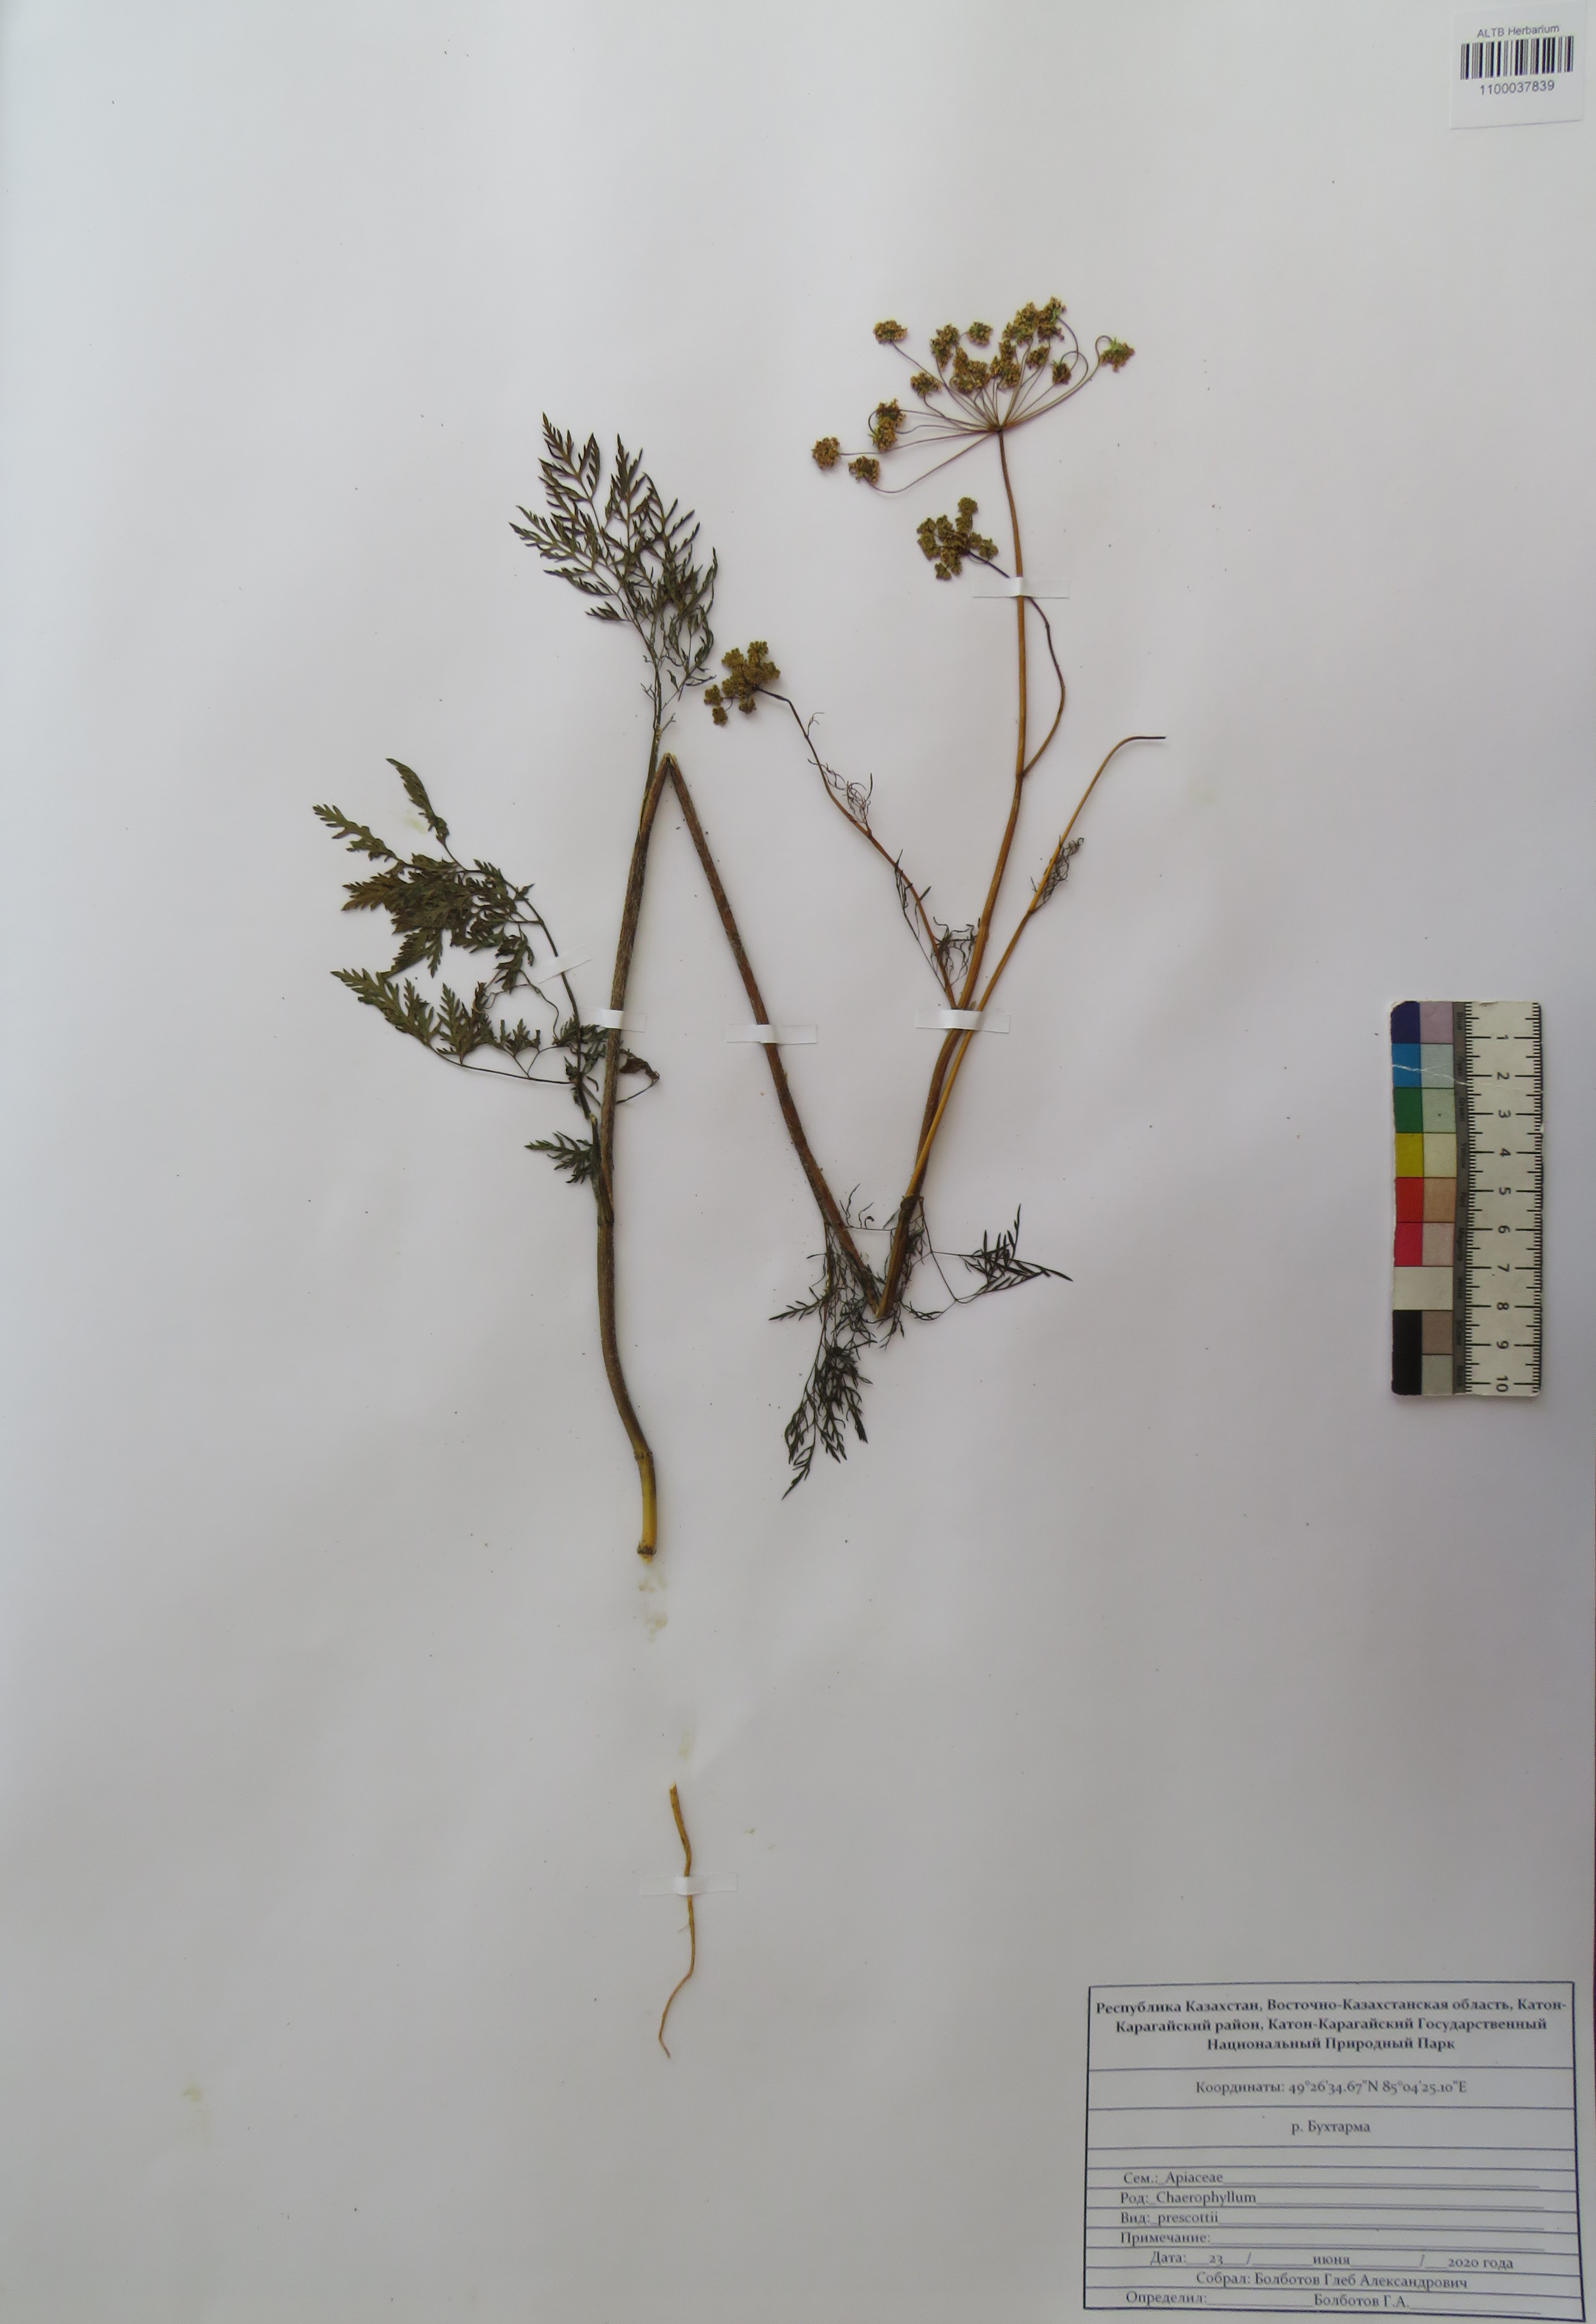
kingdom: Plantae
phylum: Tracheophyta
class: Magnoliopsida
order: Apiales
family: Apiaceae
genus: Chaerophyllum
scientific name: Chaerophyllum prescottii
